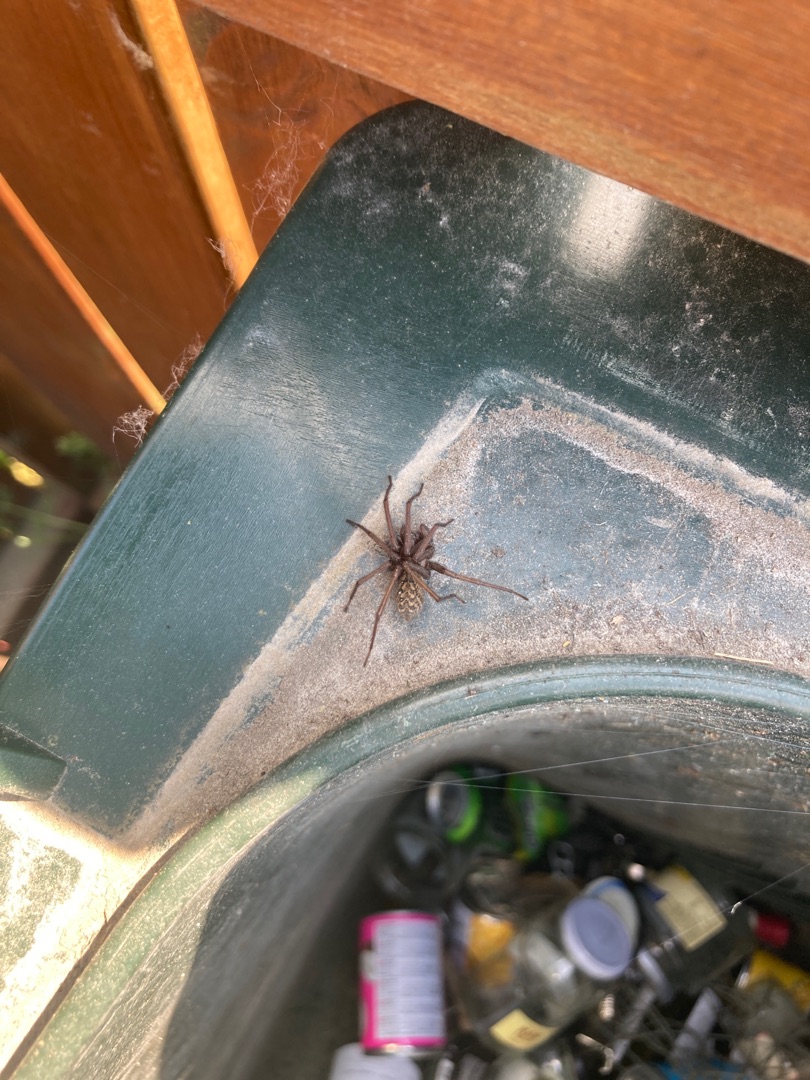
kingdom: Animalia
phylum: Arthropoda
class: Arachnida
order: Araneae
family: Agelenidae
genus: Eratigena
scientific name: Eratigena atrica
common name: Stor husedderkop
